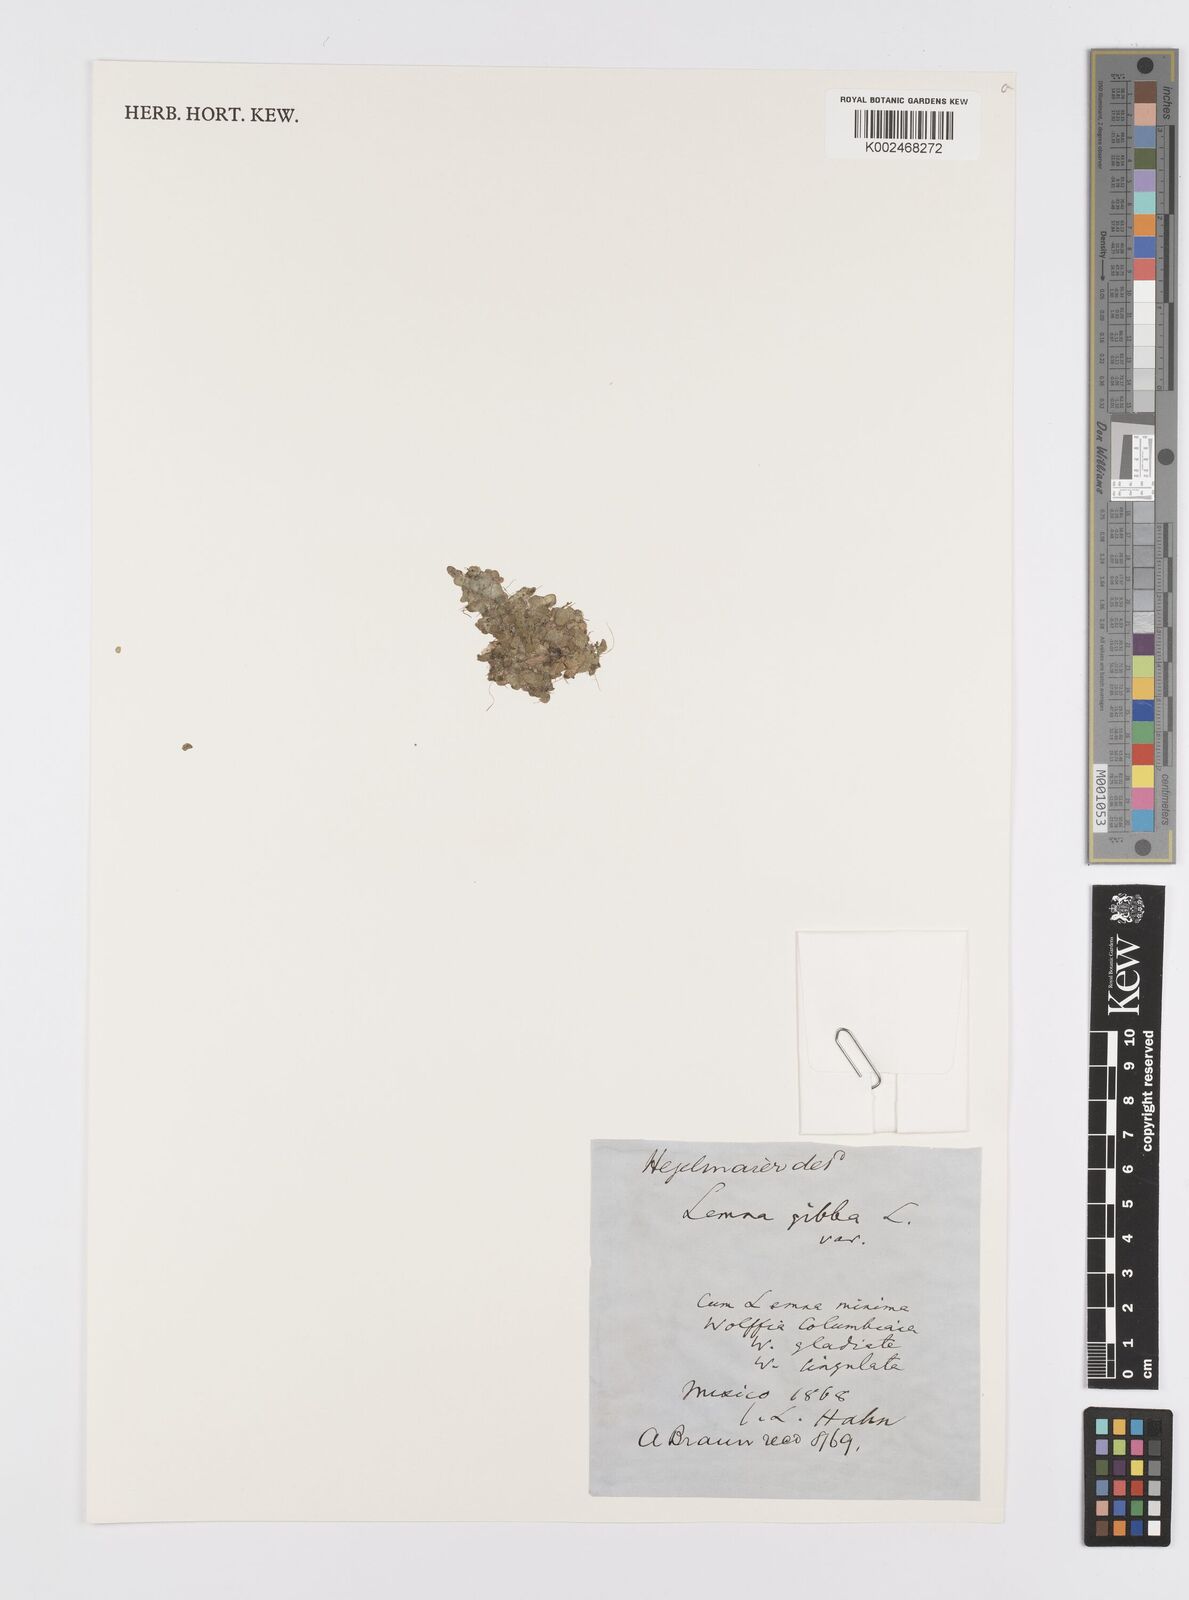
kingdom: Plantae
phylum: Tracheophyta
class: Liliopsida
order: Alismatales
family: Araceae
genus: Lemna
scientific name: Lemna gibba
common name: Fat duckweed
